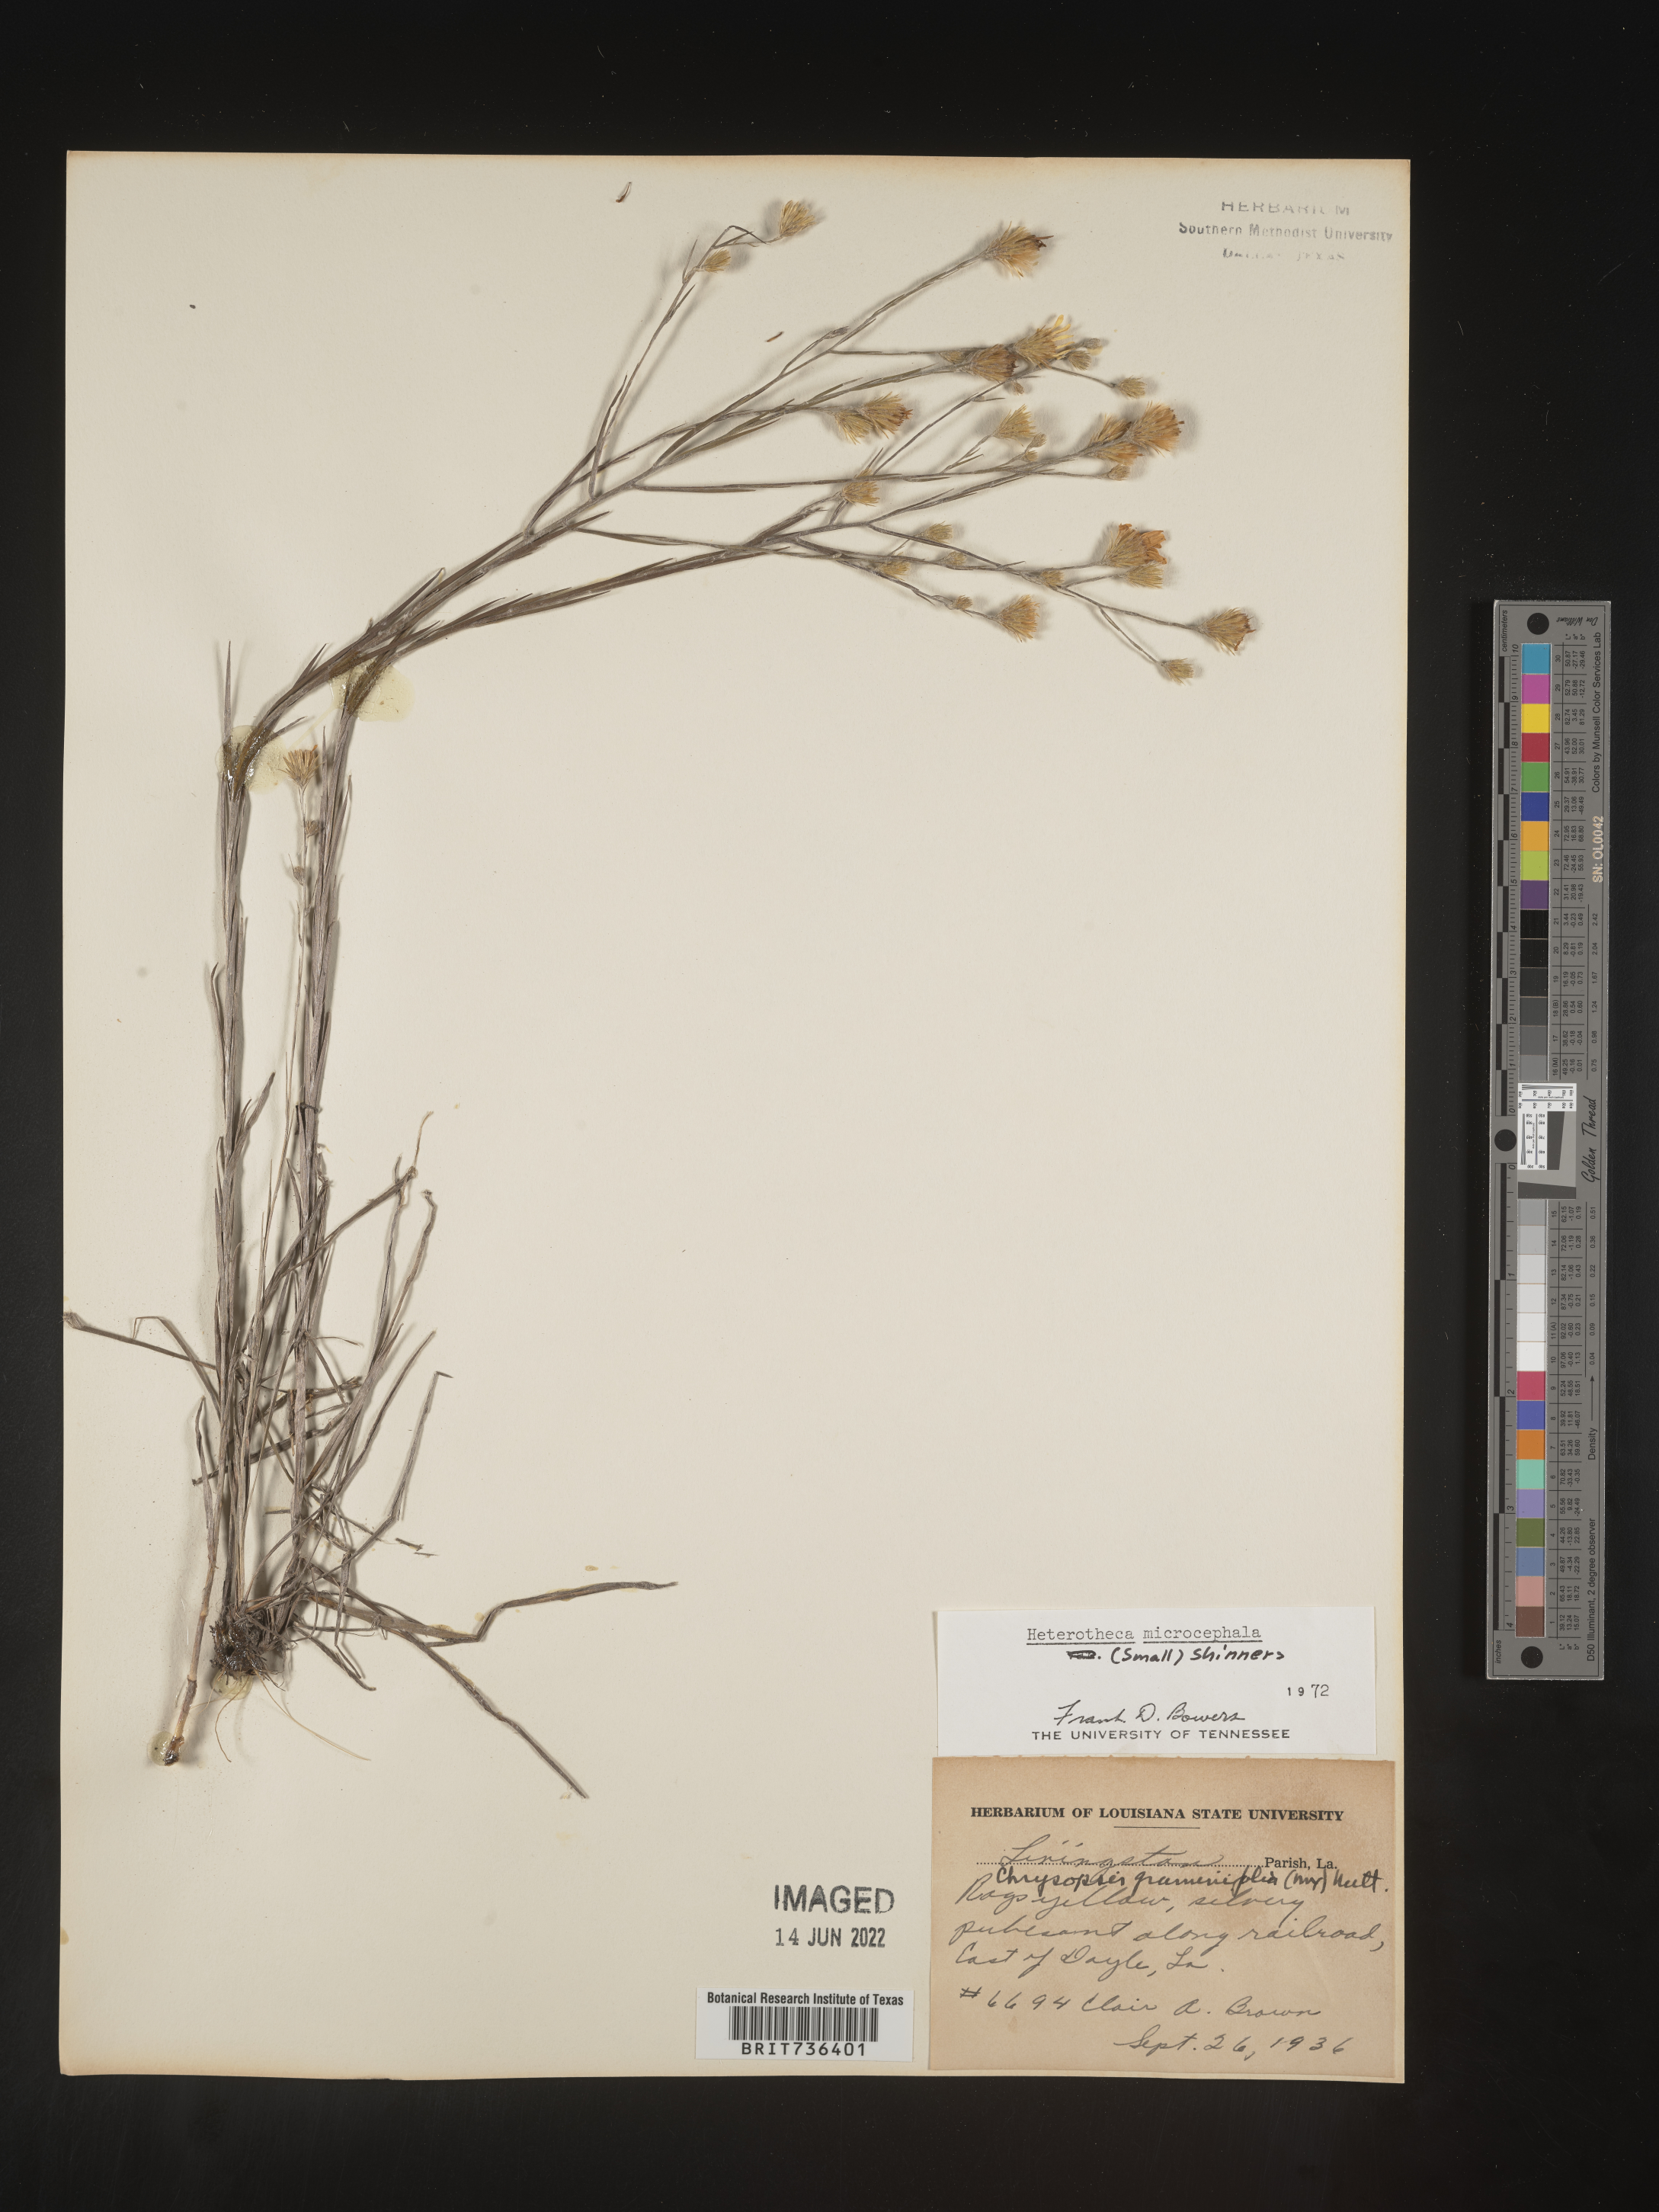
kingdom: Plantae
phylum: Tracheophyta
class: Magnoliopsida
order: Asterales
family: Asteraceae
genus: Pityopsis
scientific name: Pityopsis tenuifolia
